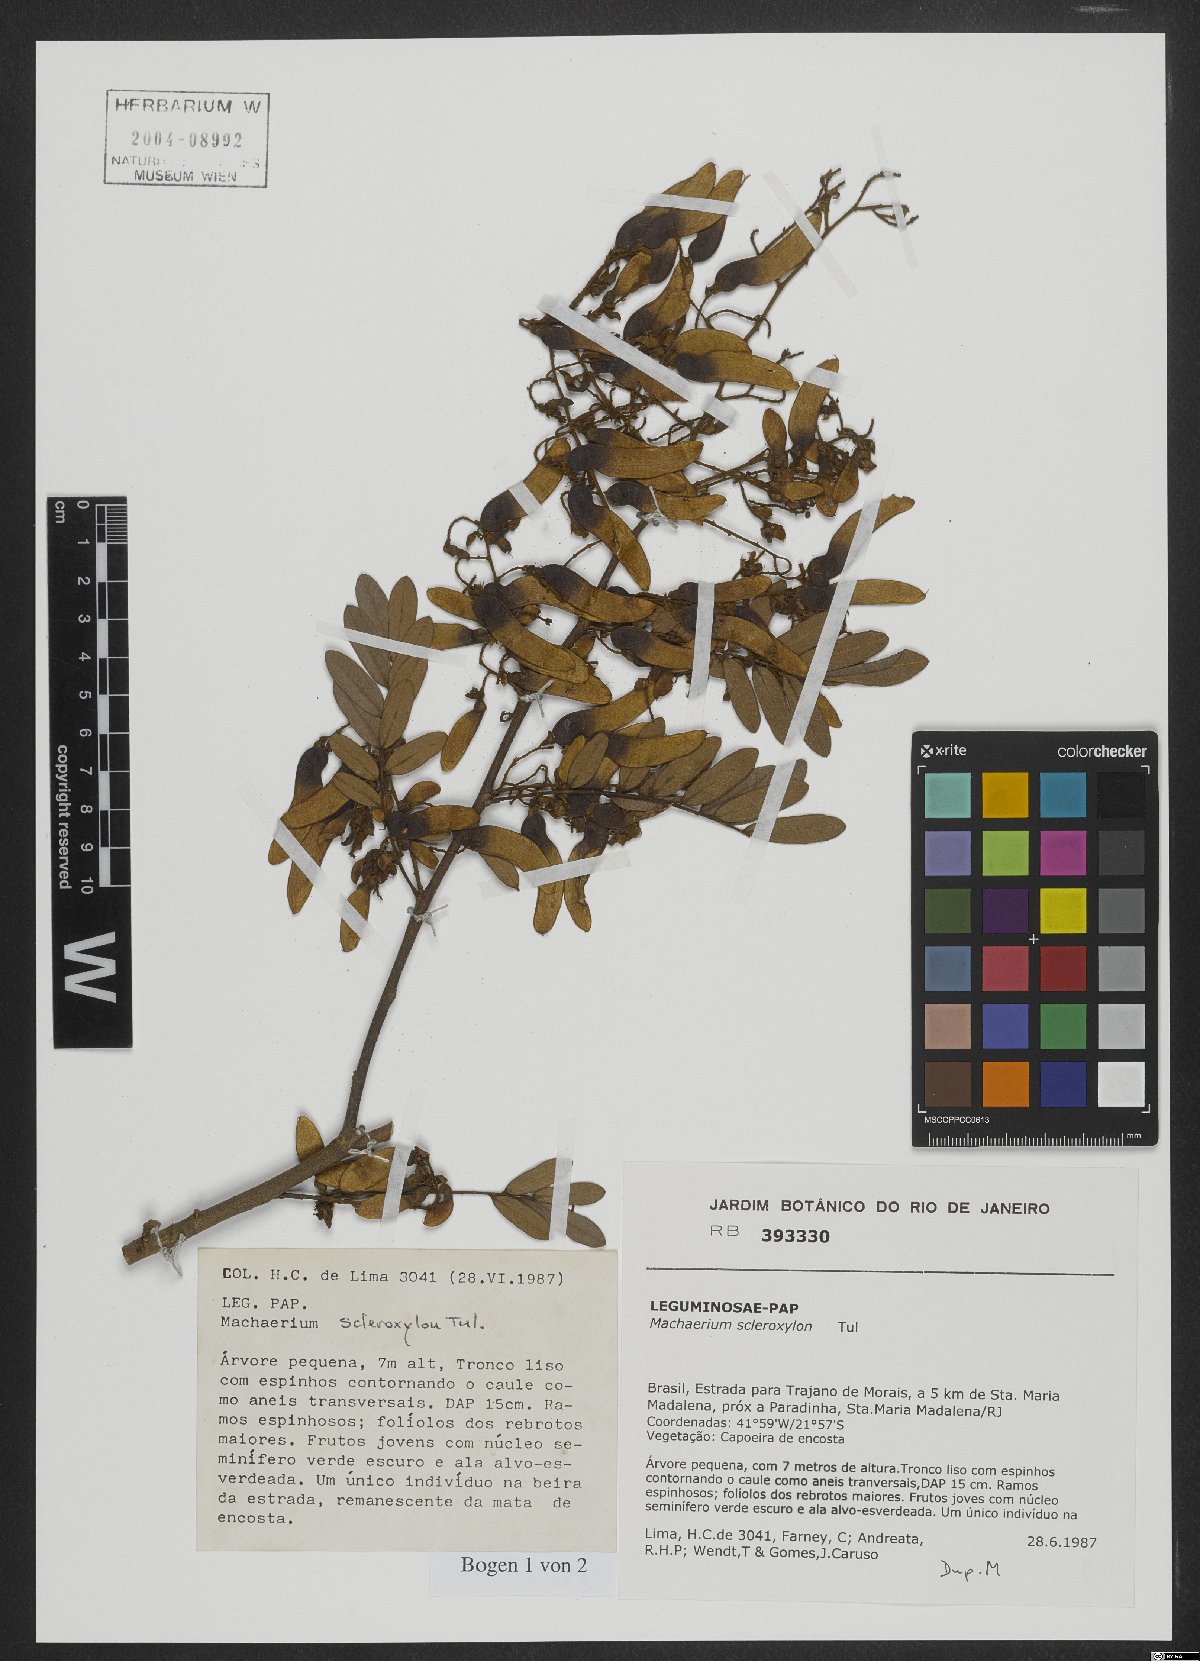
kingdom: Plantae
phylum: Tracheophyta
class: Magnoliopsida
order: Fabales
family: Fabaceae
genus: Machaerium
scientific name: Machaerium scleroxylon
